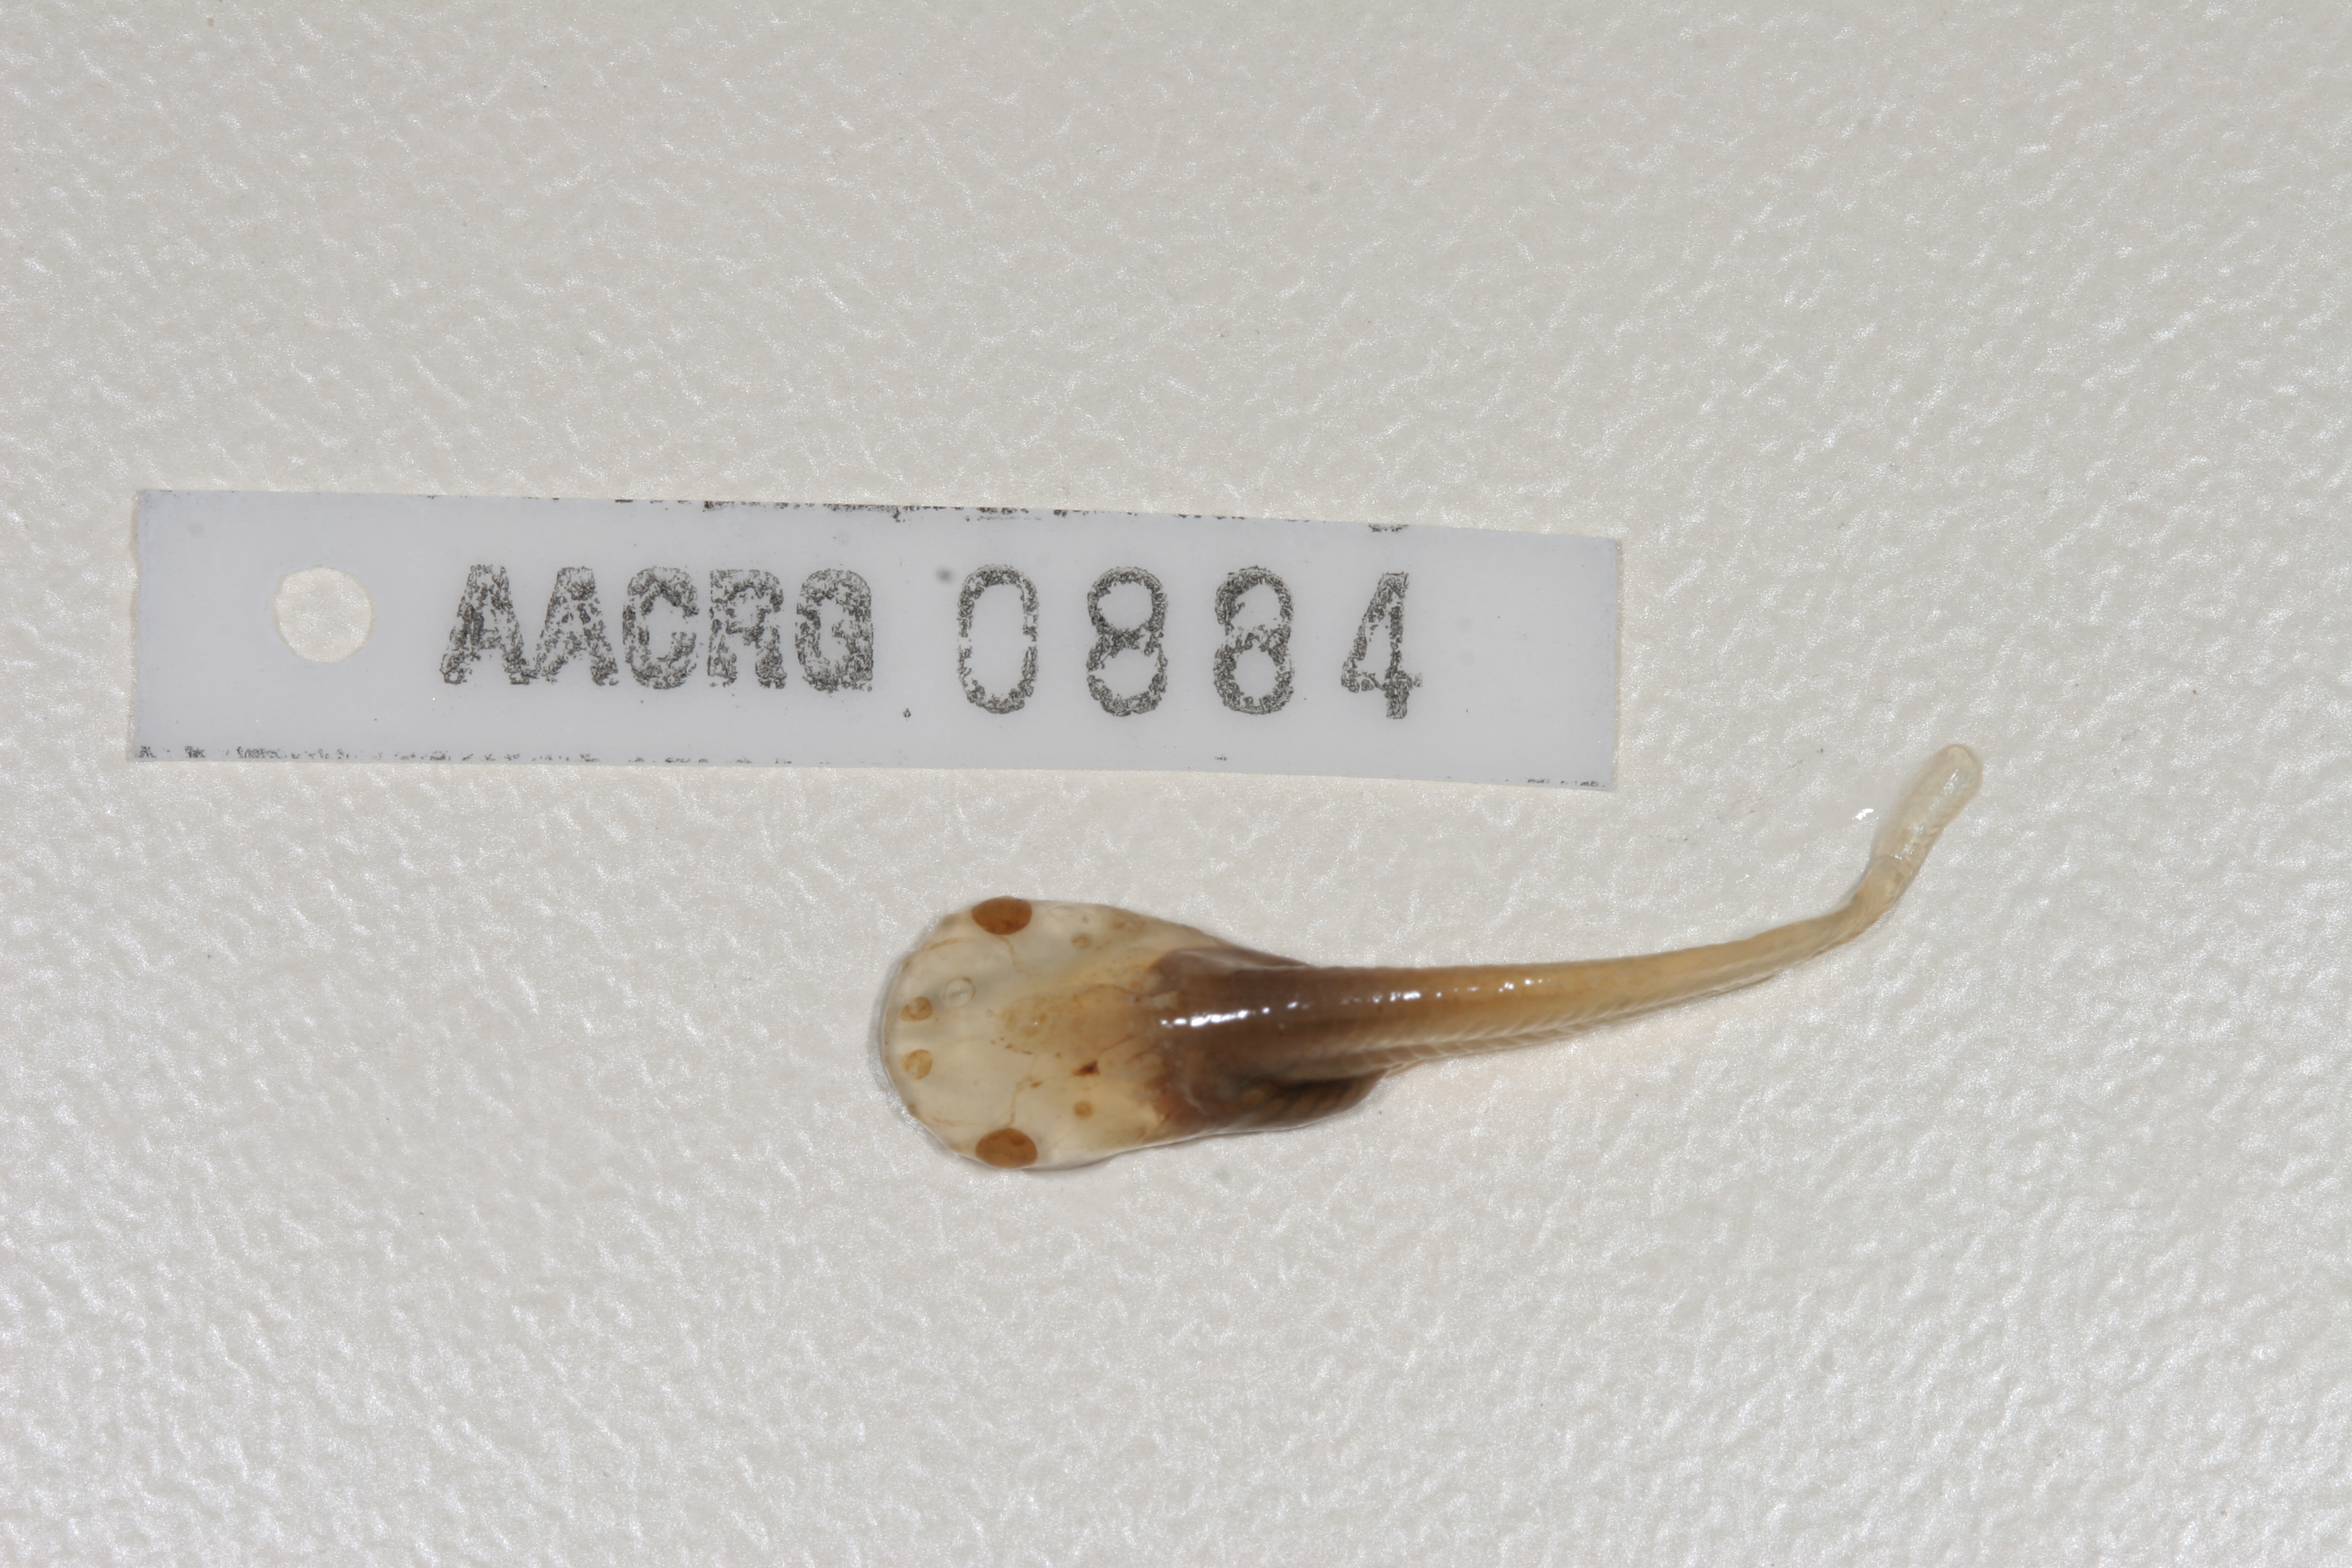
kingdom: Animalia
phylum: Chordata
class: Amphibia
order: Anura
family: Pipidae
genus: Xenopus
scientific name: Xenopus laevis
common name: African clawed frog
